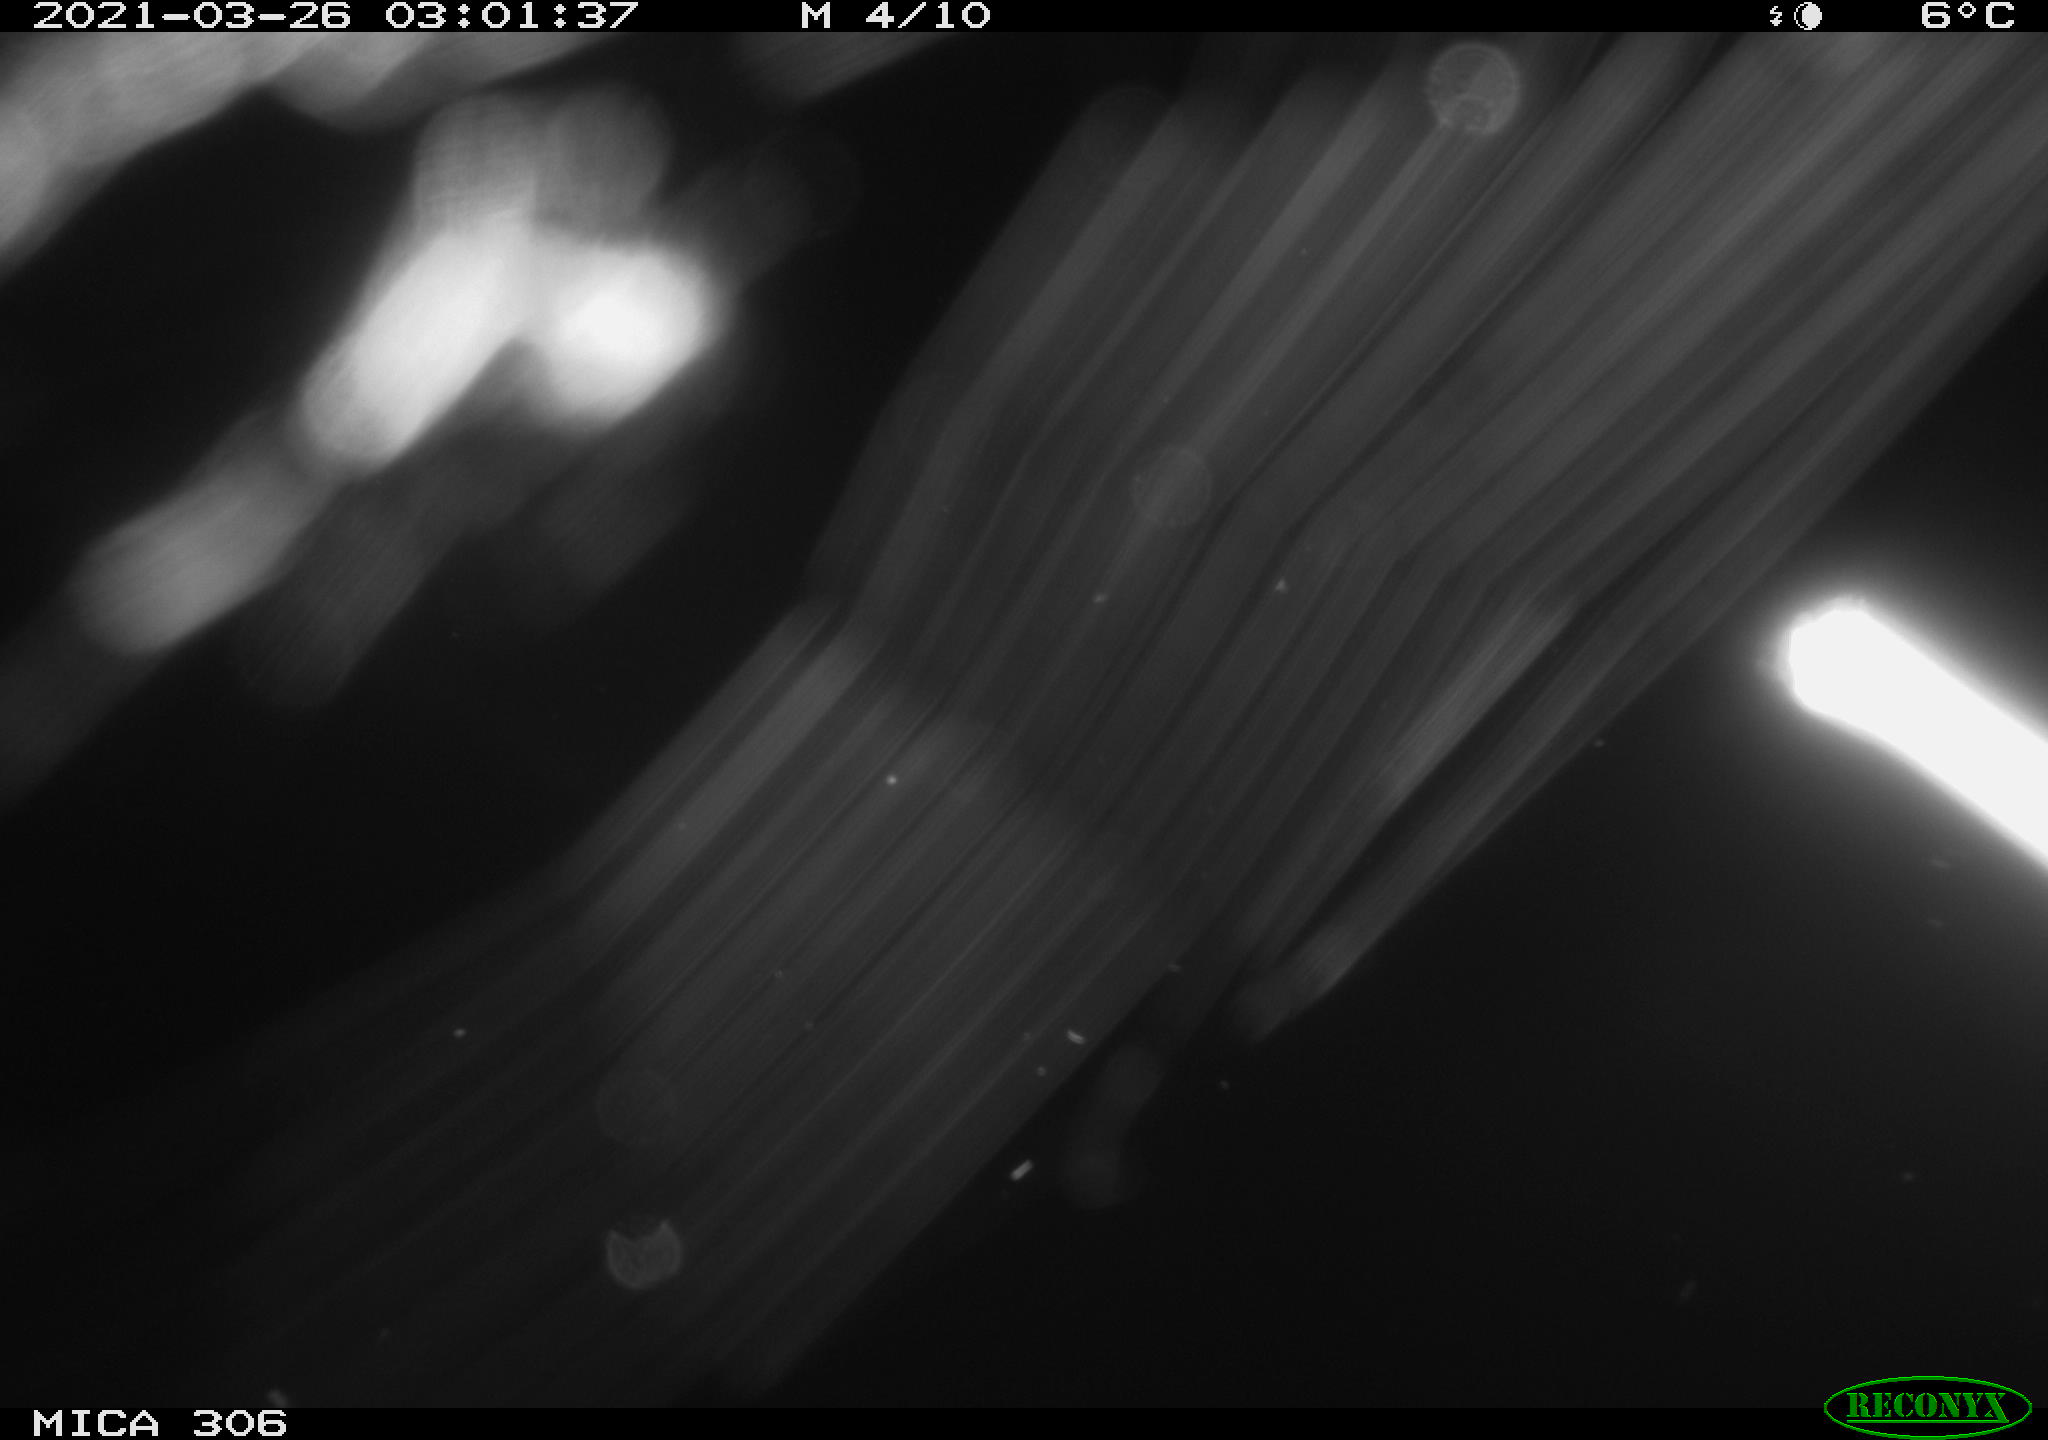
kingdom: Animalia
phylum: Chordata
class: Mammalia
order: Rodentia
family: Muridae
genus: Rattus
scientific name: Rattus norvegicus
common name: Brown rat
